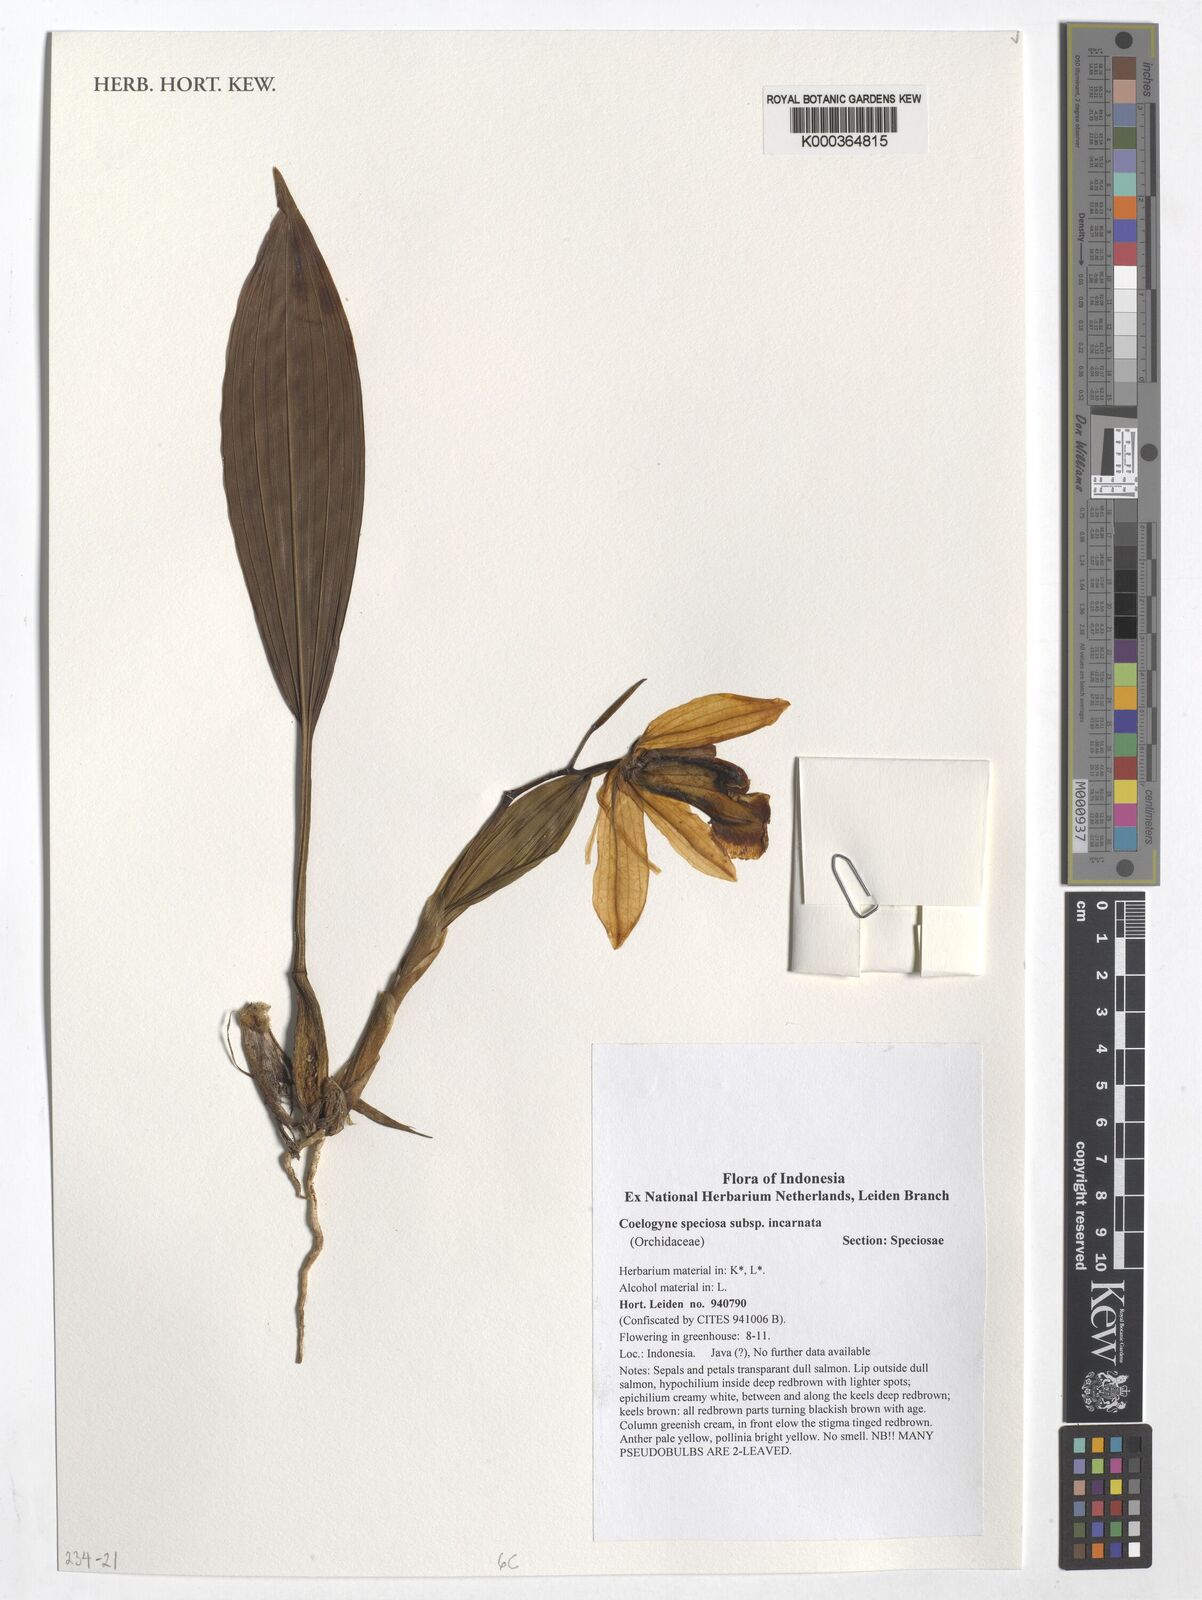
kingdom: Plantae
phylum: Tracheophyta
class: Liliopsida
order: Asparagales
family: Orchidaceae
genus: Coelogyne
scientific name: Coelogyne speciosa
